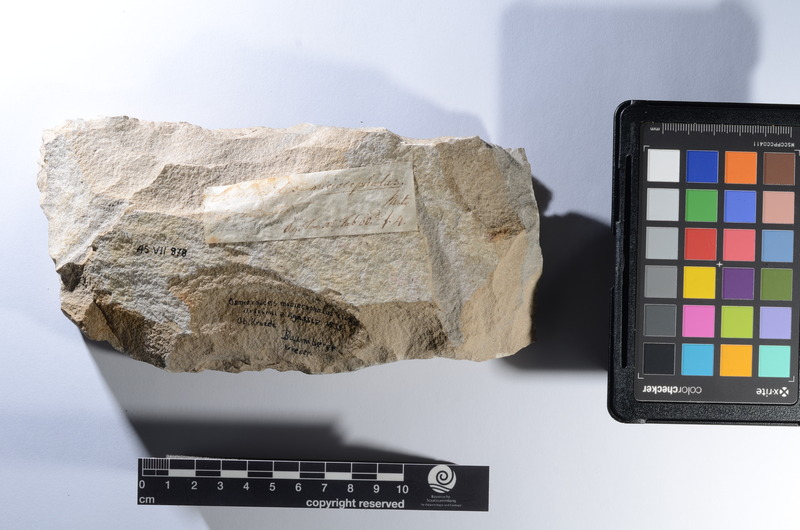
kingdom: Animalia
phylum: Chordata
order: Myctophiformes
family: Sardinoididae
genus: Sardinioides
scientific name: Sardinioides Osmeroides monasterii
